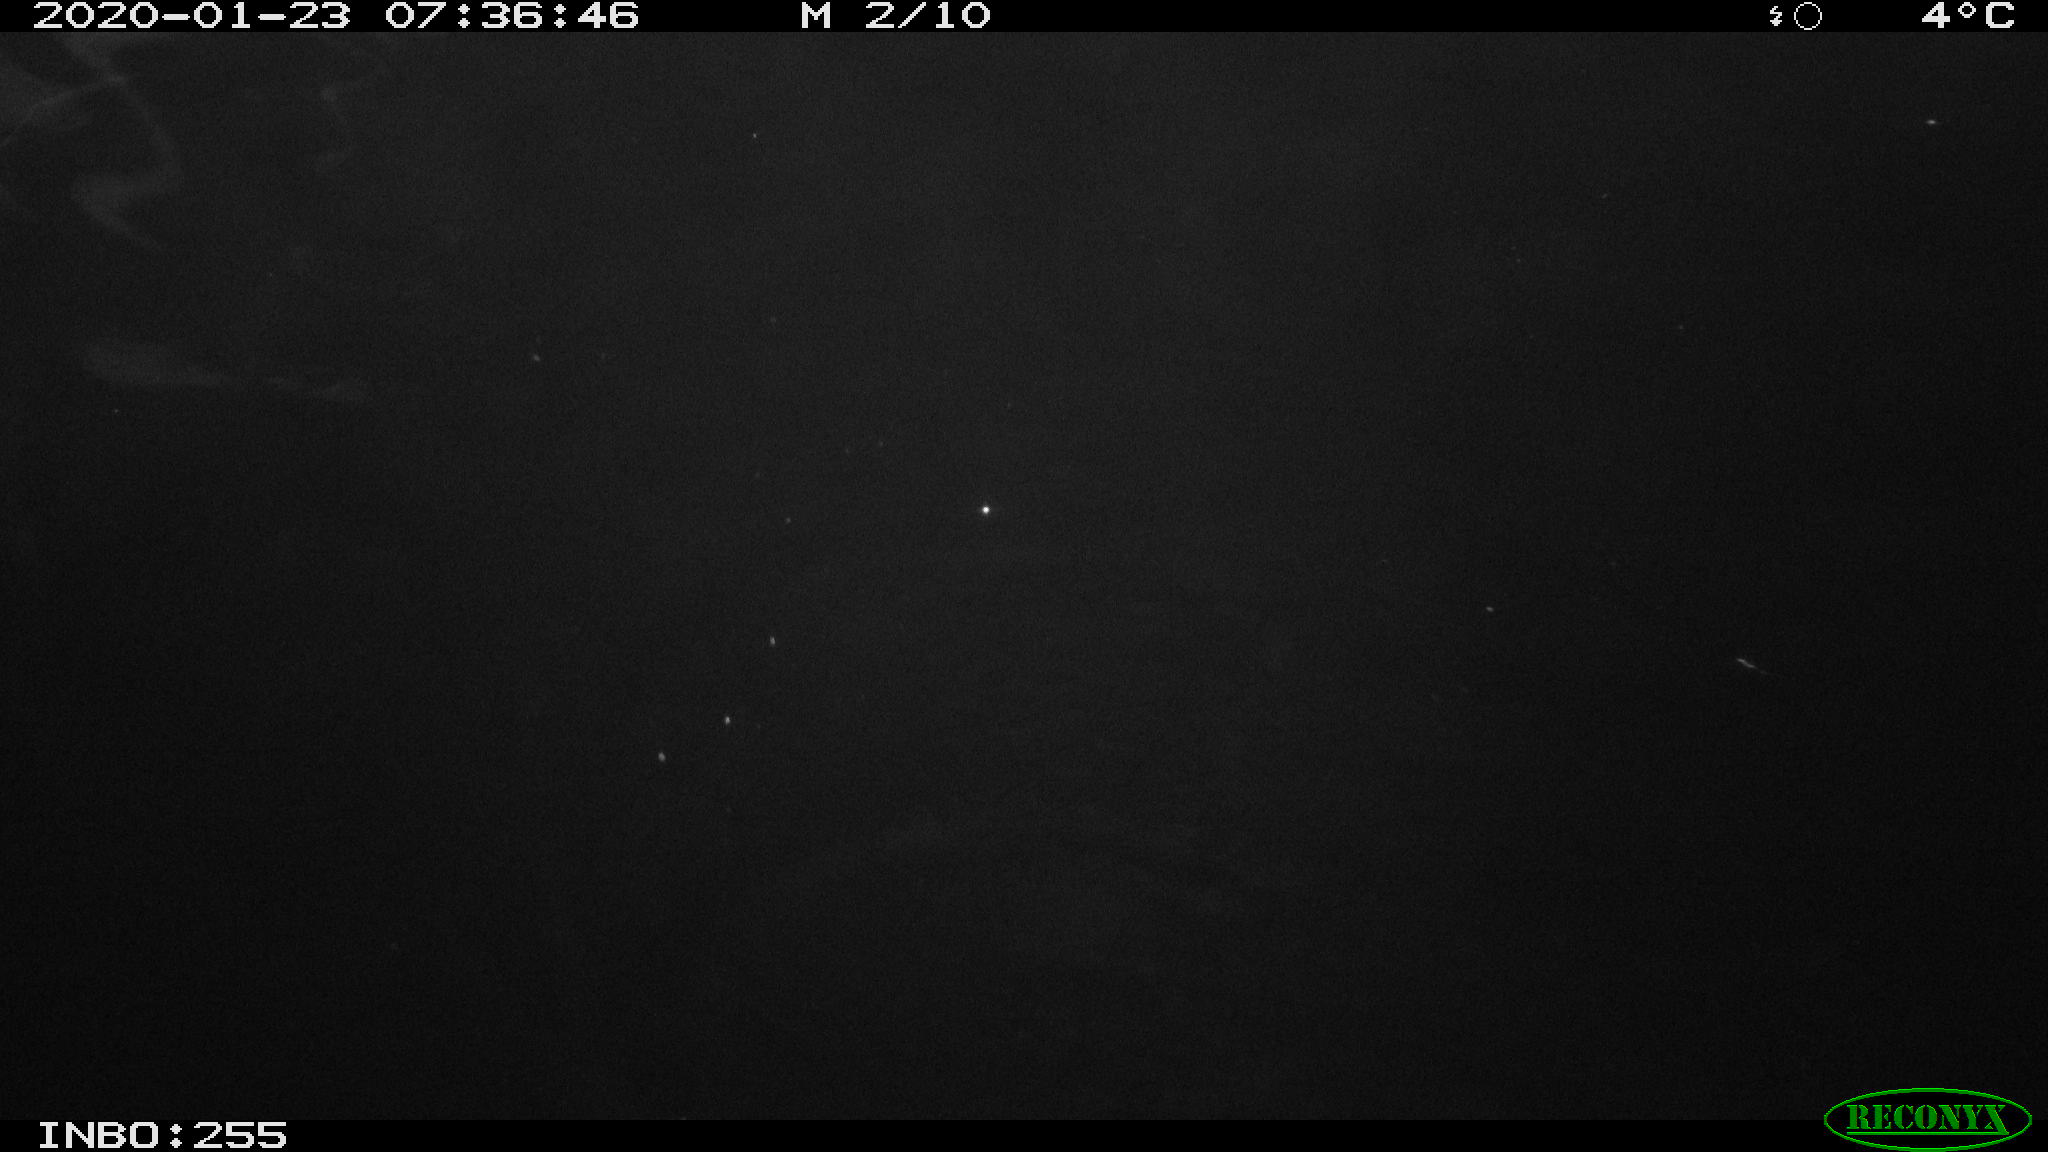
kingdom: Animalia
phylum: Chordata
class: Mammalia
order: Rodentia
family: Cricetidae
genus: Ondatra
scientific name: Ondatra zibethicus
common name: Muskrat
